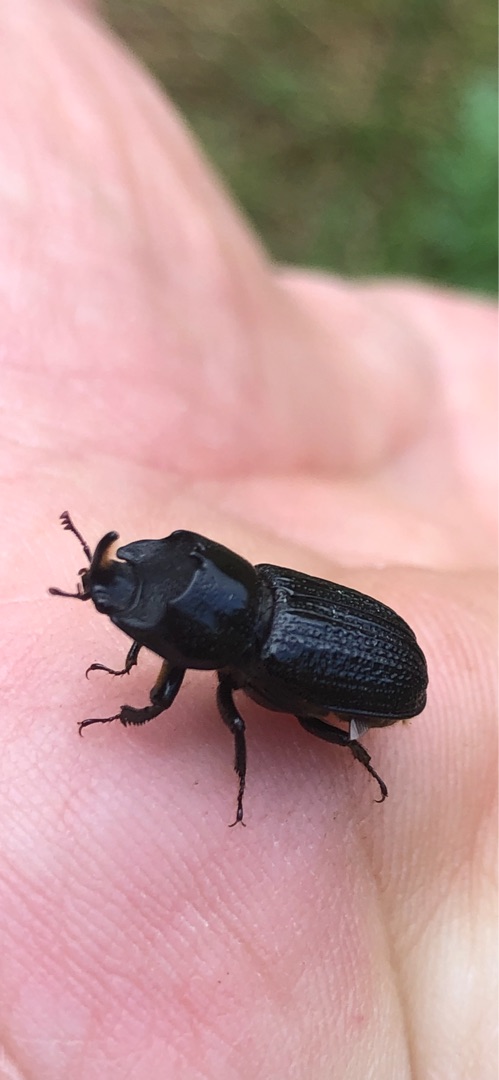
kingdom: Animalia
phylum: Arthropoda
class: Insecta
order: Coleoptera
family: Lucanidae
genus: Sinodendron
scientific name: Sinodendron cylindricum
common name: Valsehjort
